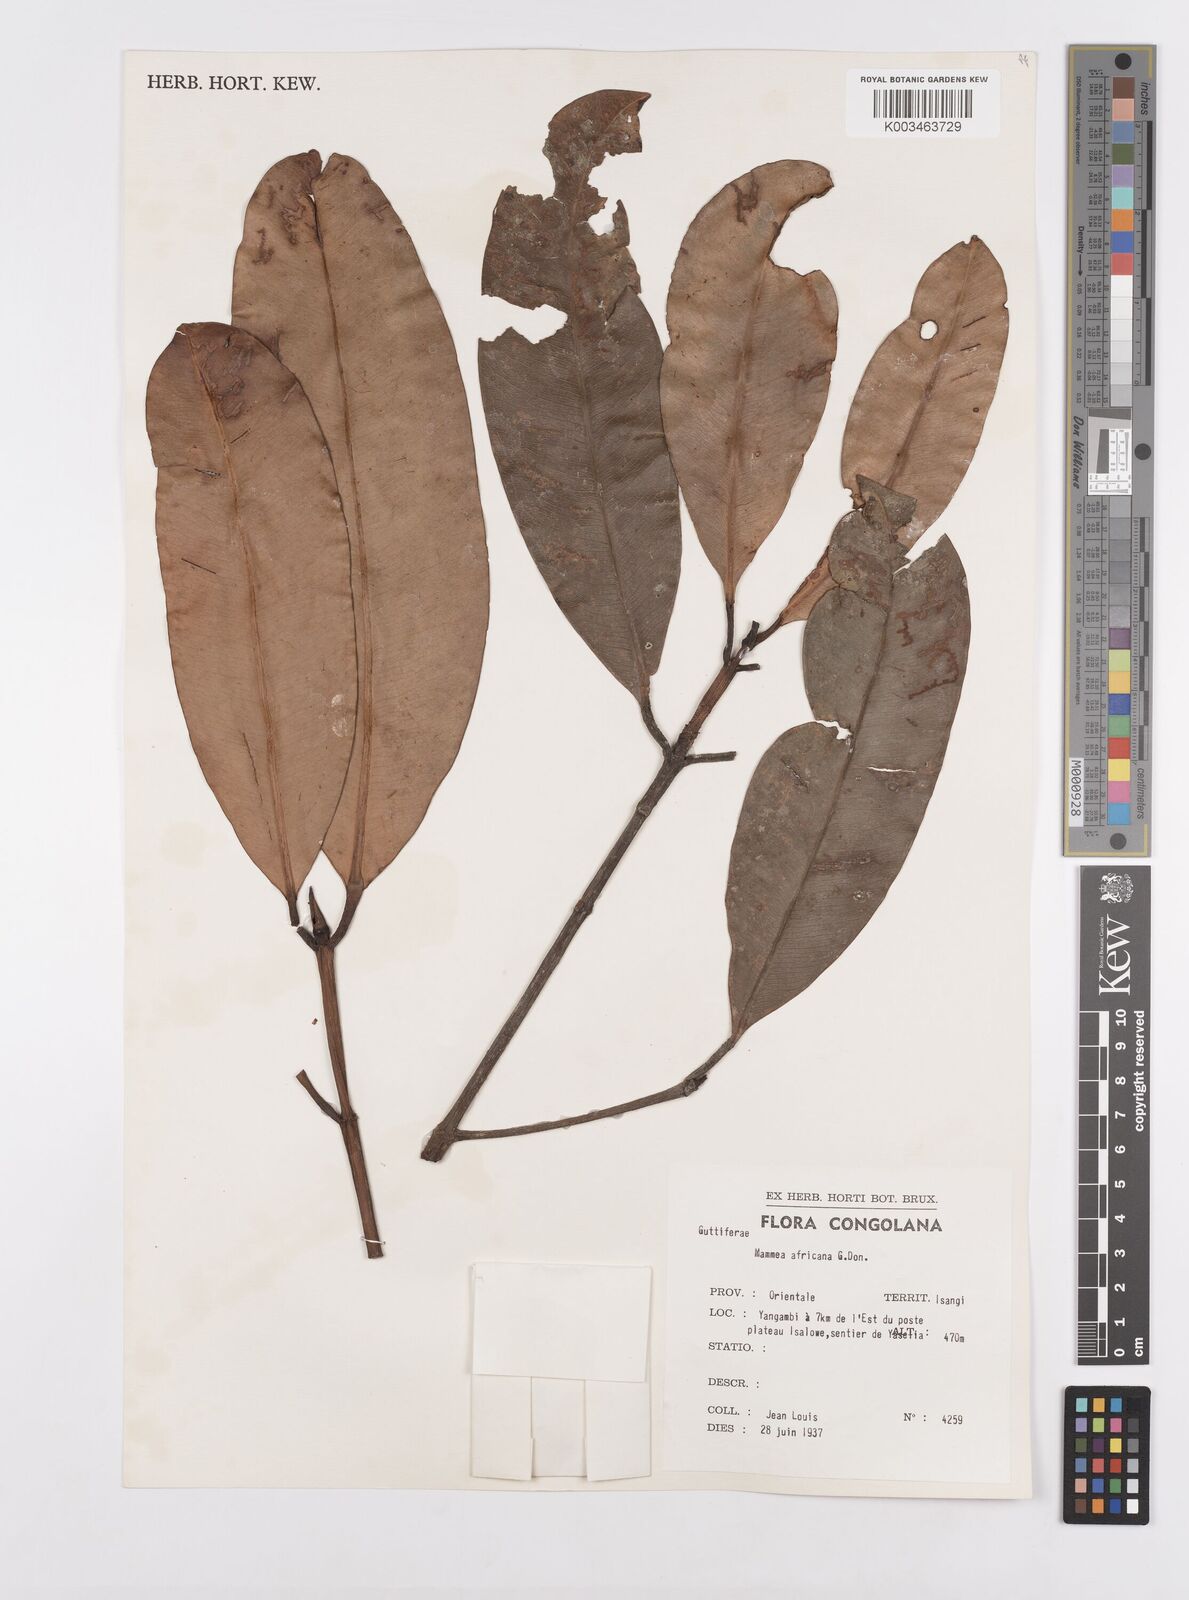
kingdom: Plantae
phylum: Tracheophyta
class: Magnoliopsida
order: Malpighiales
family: Calophyllaceae
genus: Mammea
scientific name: Mammea africana
